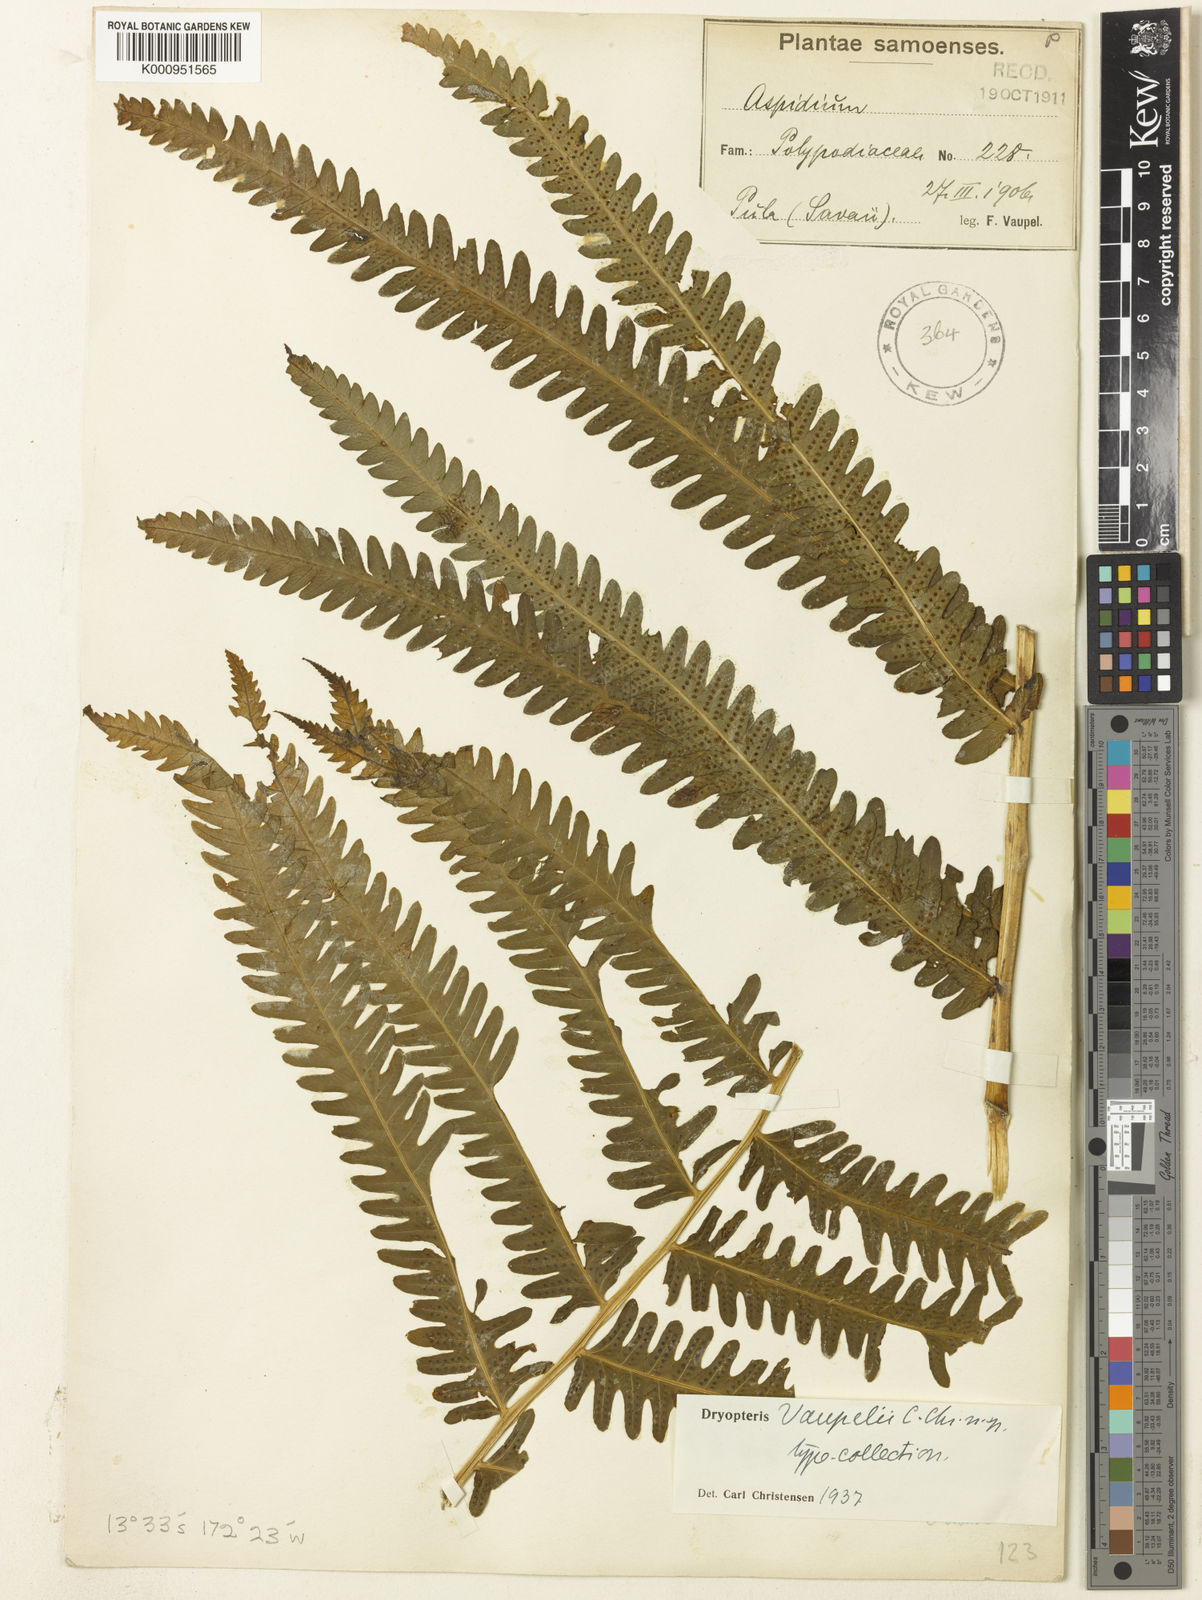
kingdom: Plantae
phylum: Tracheophyta
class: Polypodiopsida
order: Polypodiales
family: Thelypteridaceae
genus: Reholttumia
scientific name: Reholttumia vaupelii
